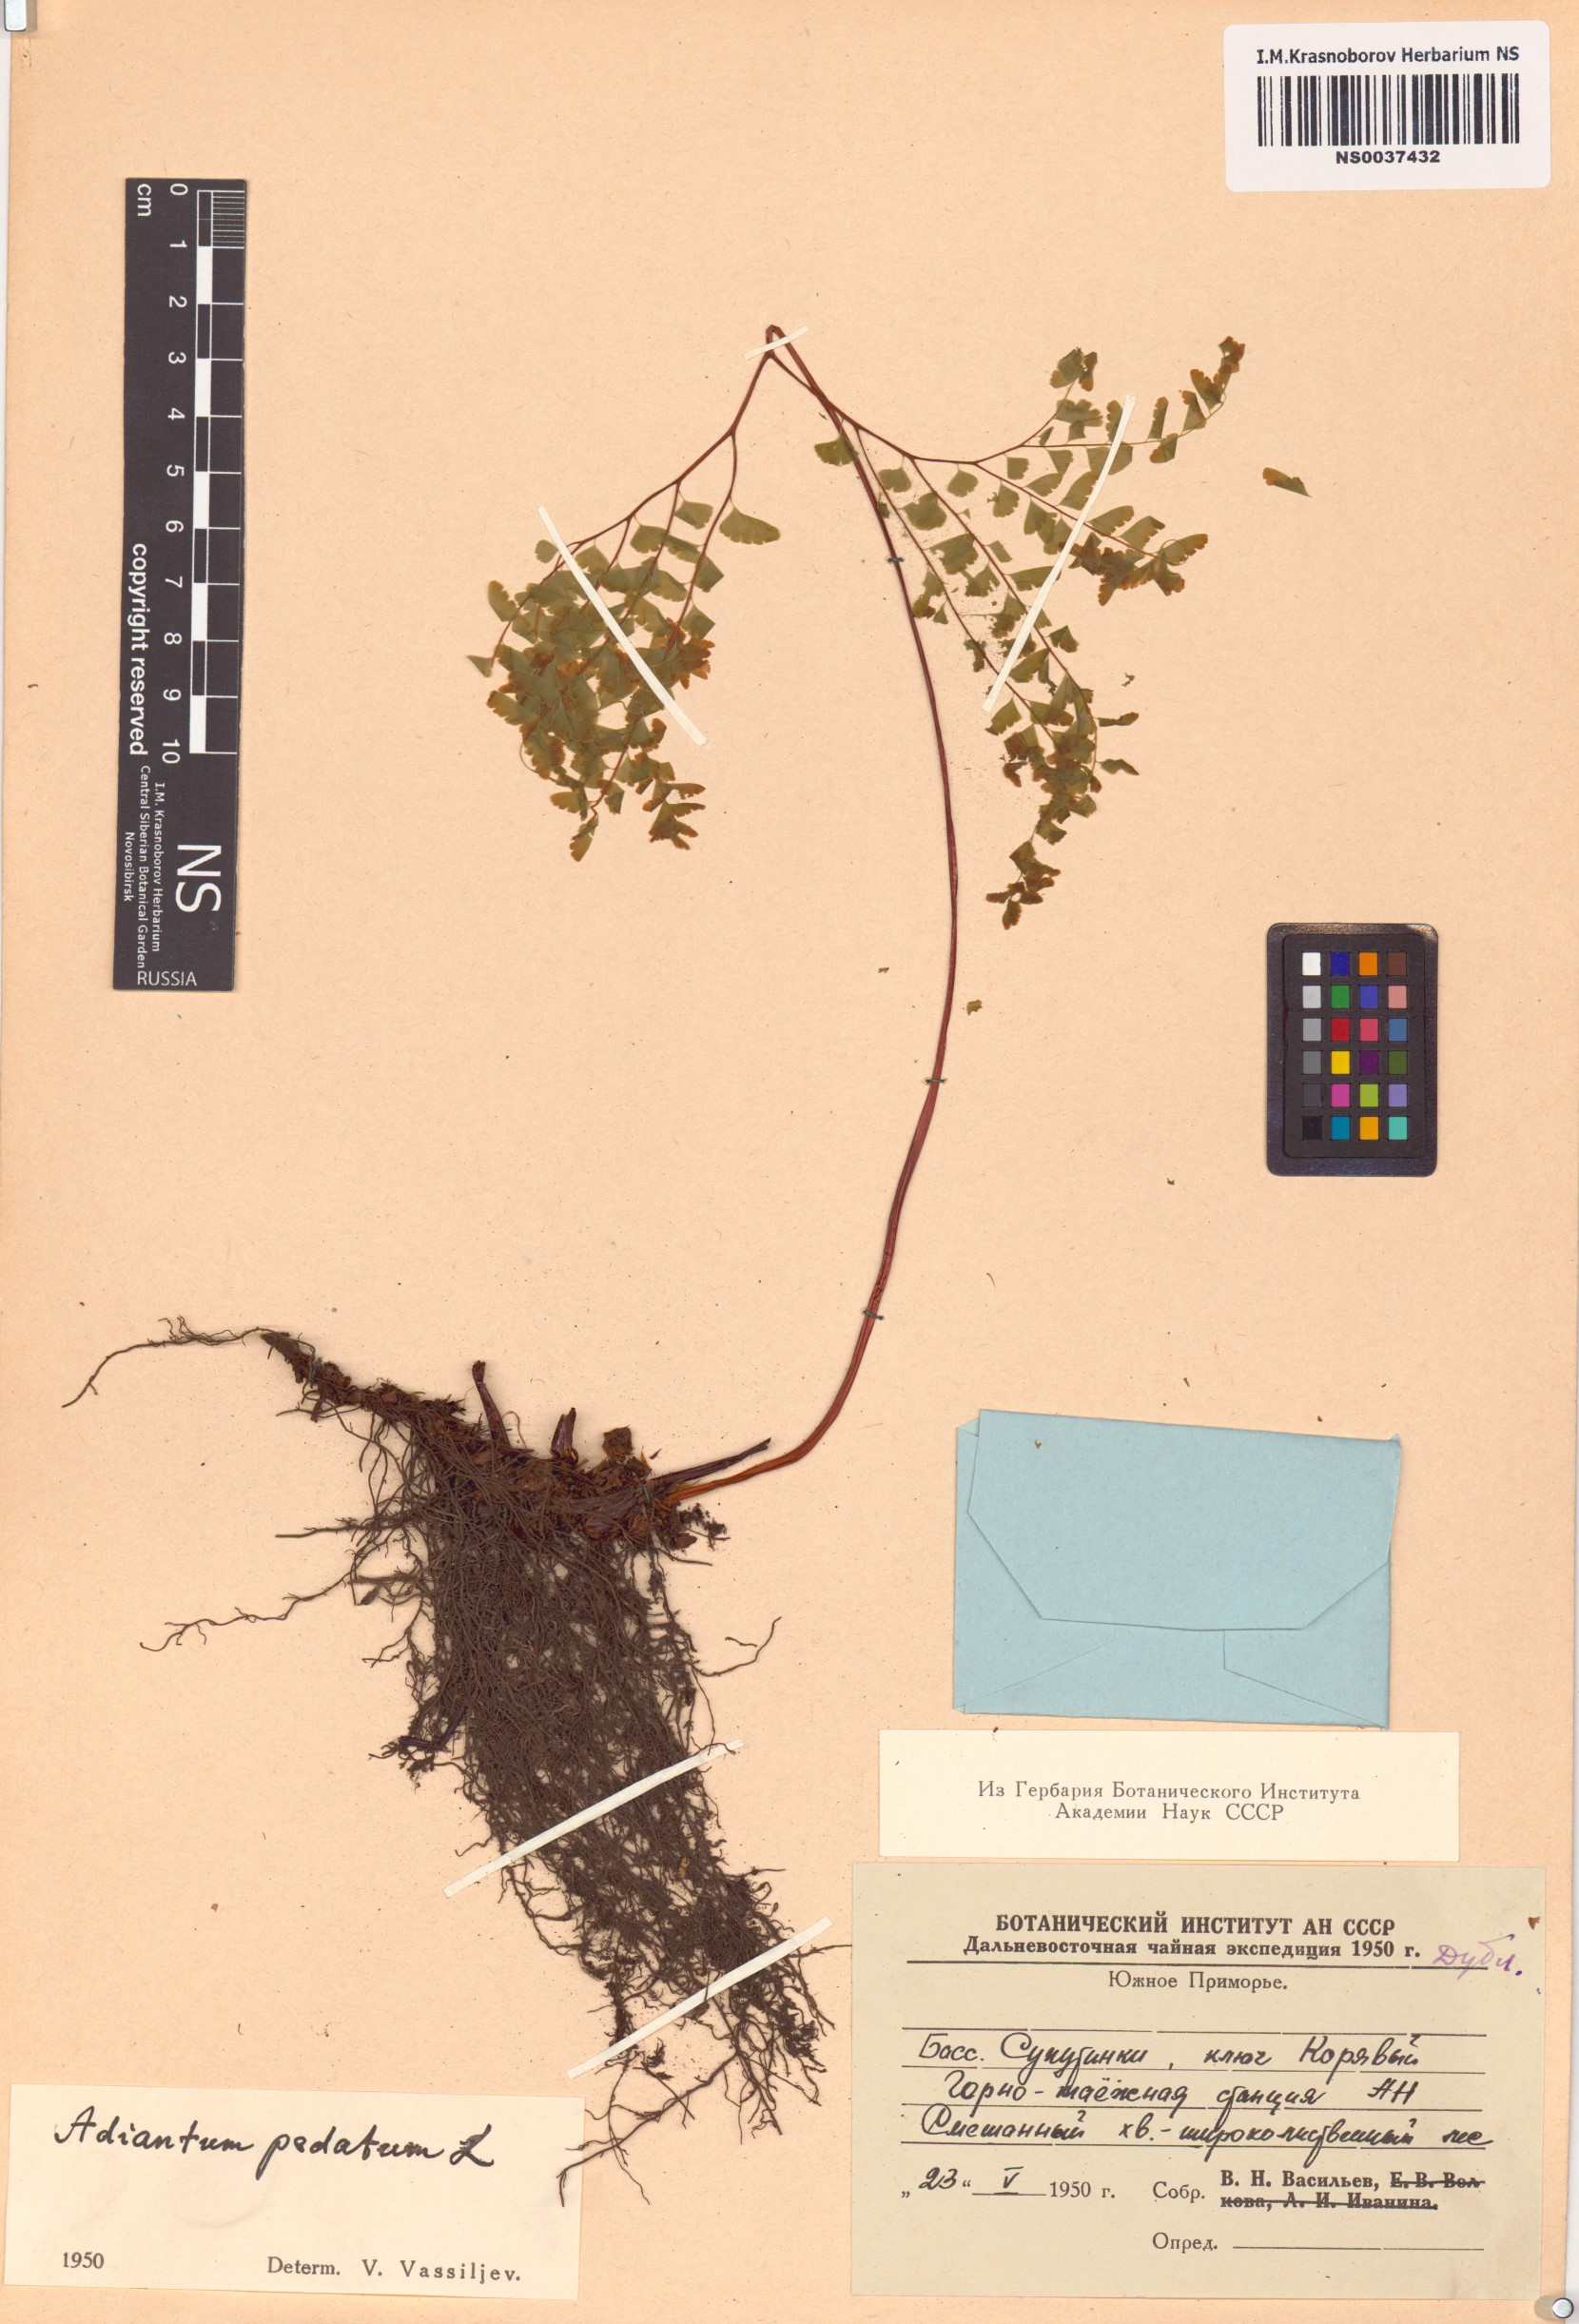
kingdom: Plantae
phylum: Tracheophyta
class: Polypodiopsida
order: Polypodiales
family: Pteridaceae
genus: Adiantum
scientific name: Adiantum pedatum
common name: Five-finger fern
